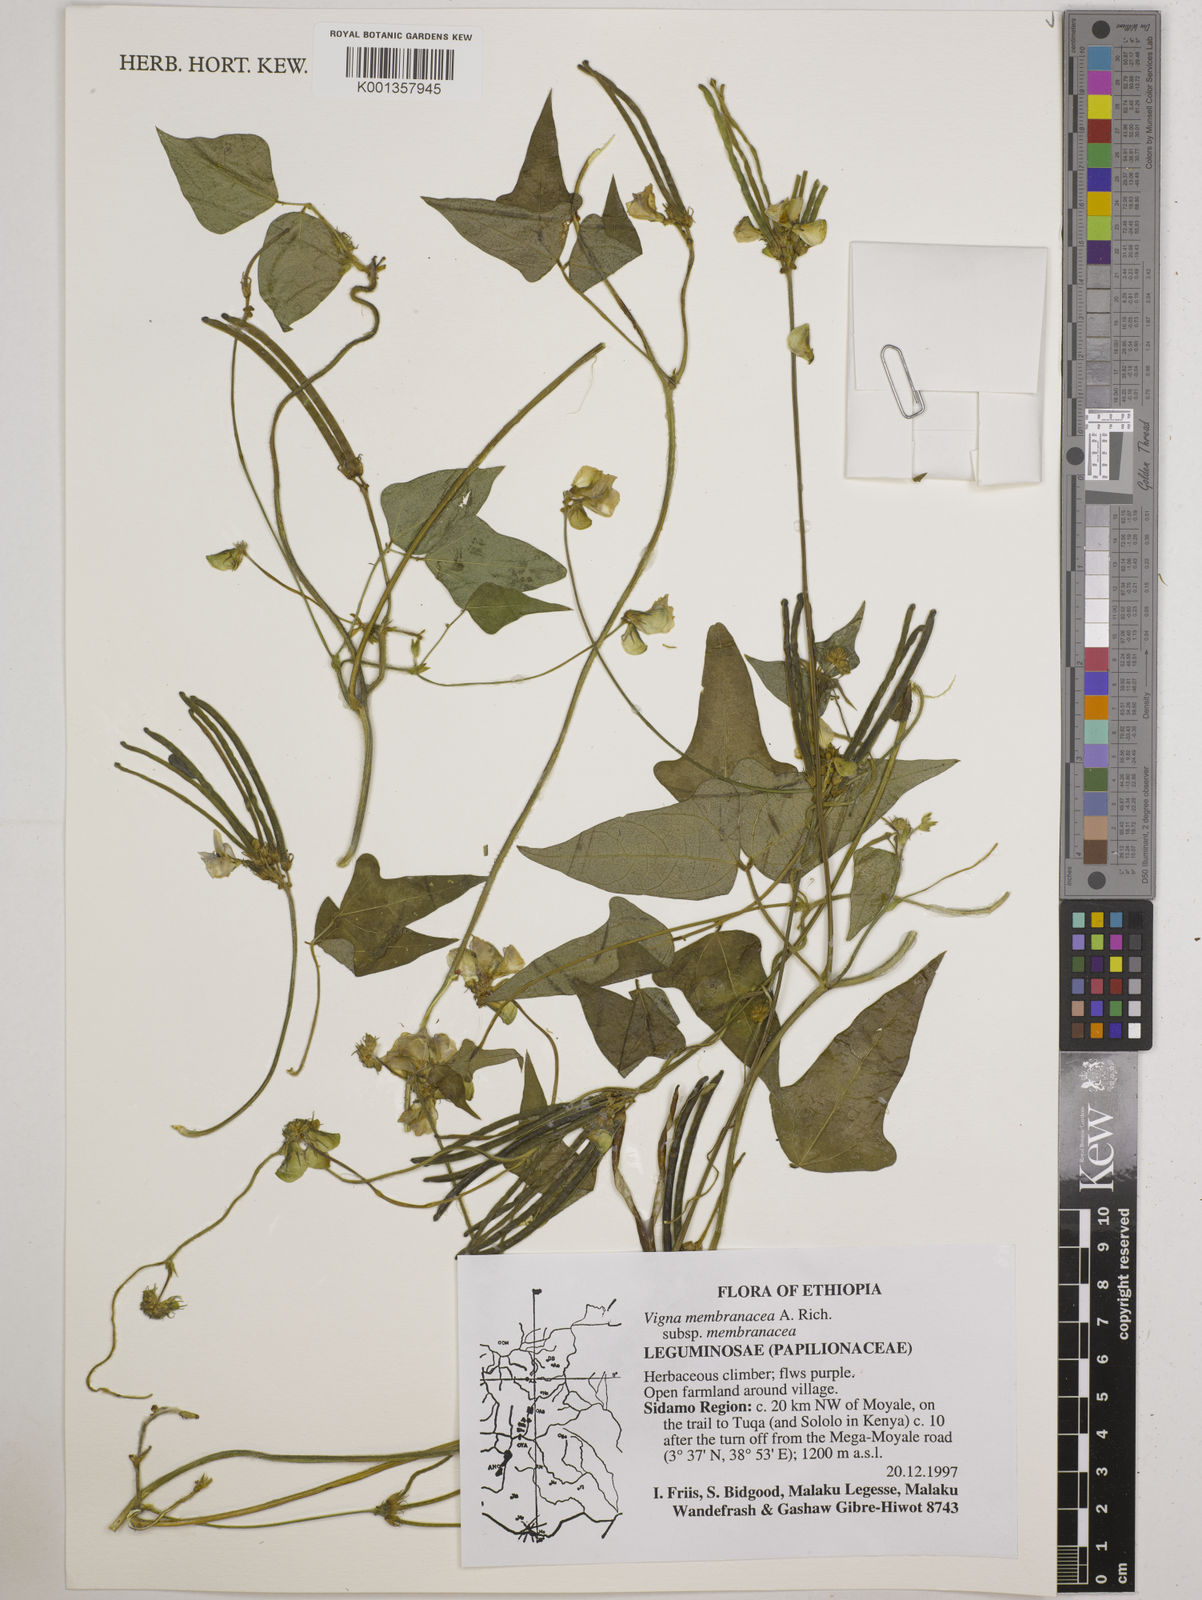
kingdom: Plantae
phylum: Tracheophyta
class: Magnoliopsida
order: Fabales
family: Fabaceae
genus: Vigna
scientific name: Vigna membranacea
